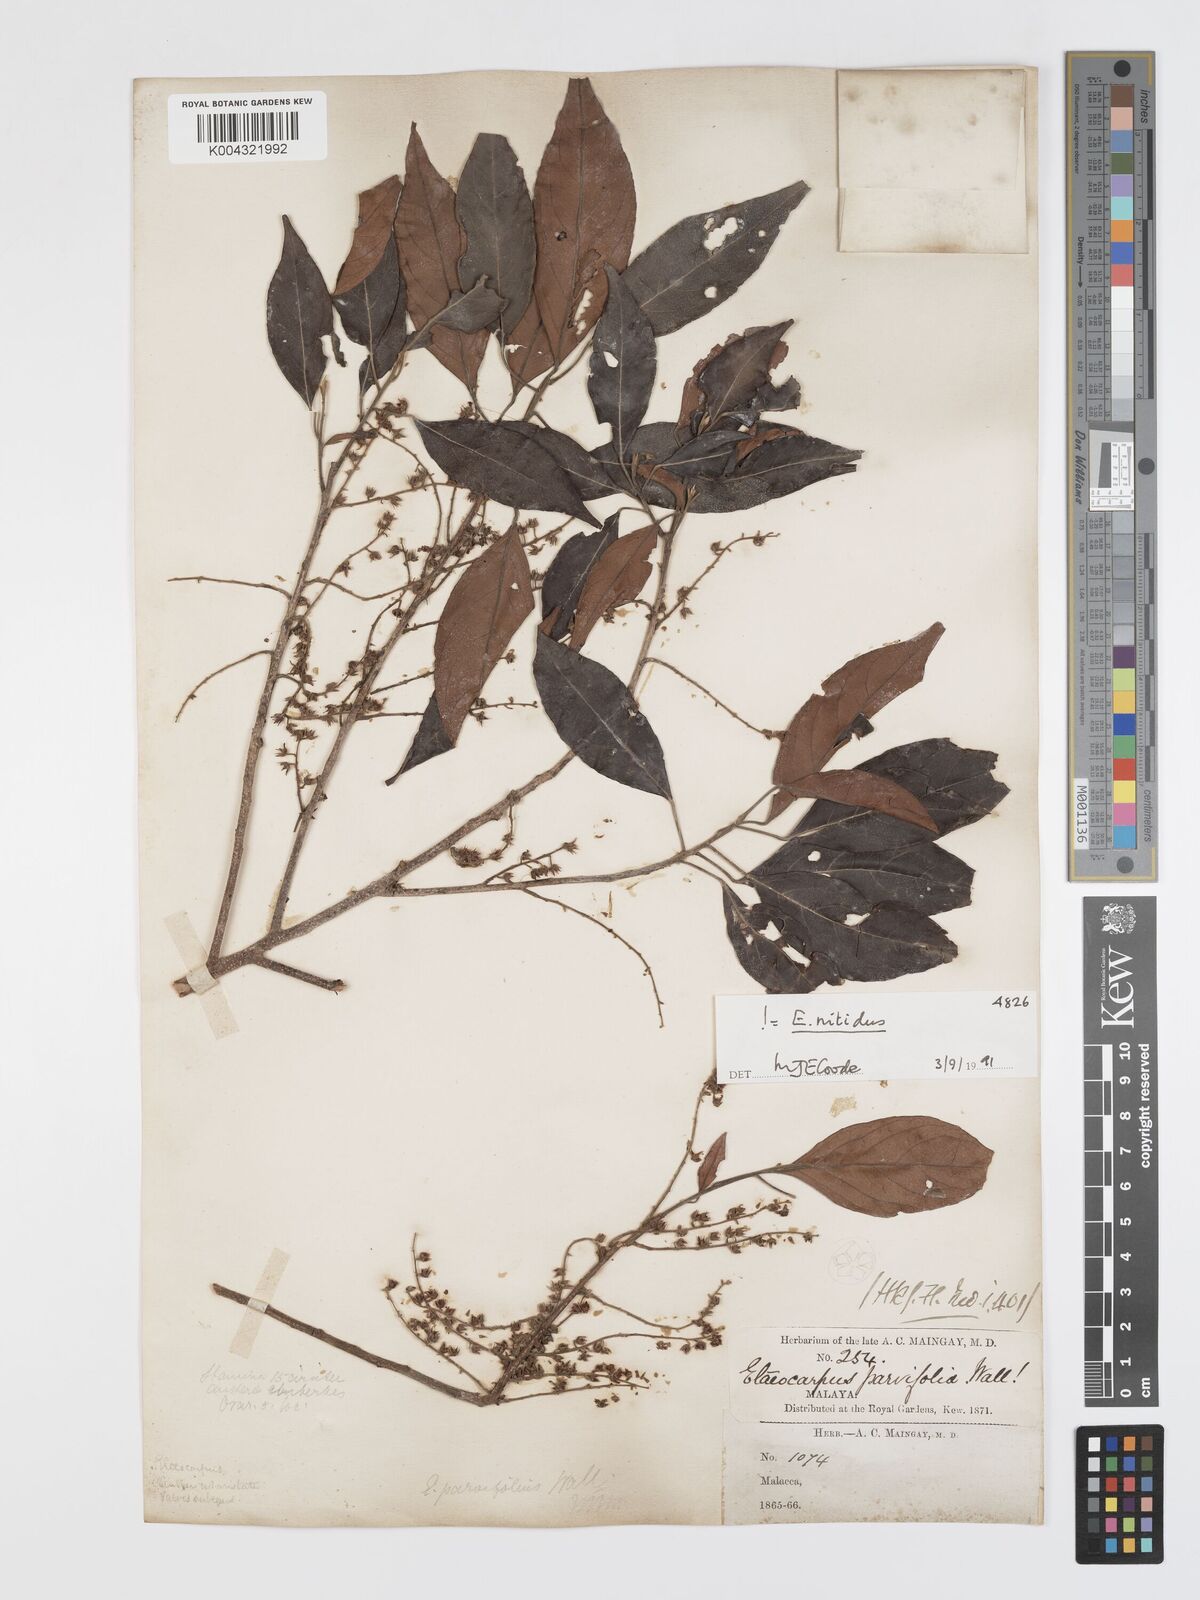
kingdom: Plantae
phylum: Tracheophyta
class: Magnoliopsida
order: Oxalidales
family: Elaeocarpaceae
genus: Elaeocarpus
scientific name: Elaeocarpus nitidus
